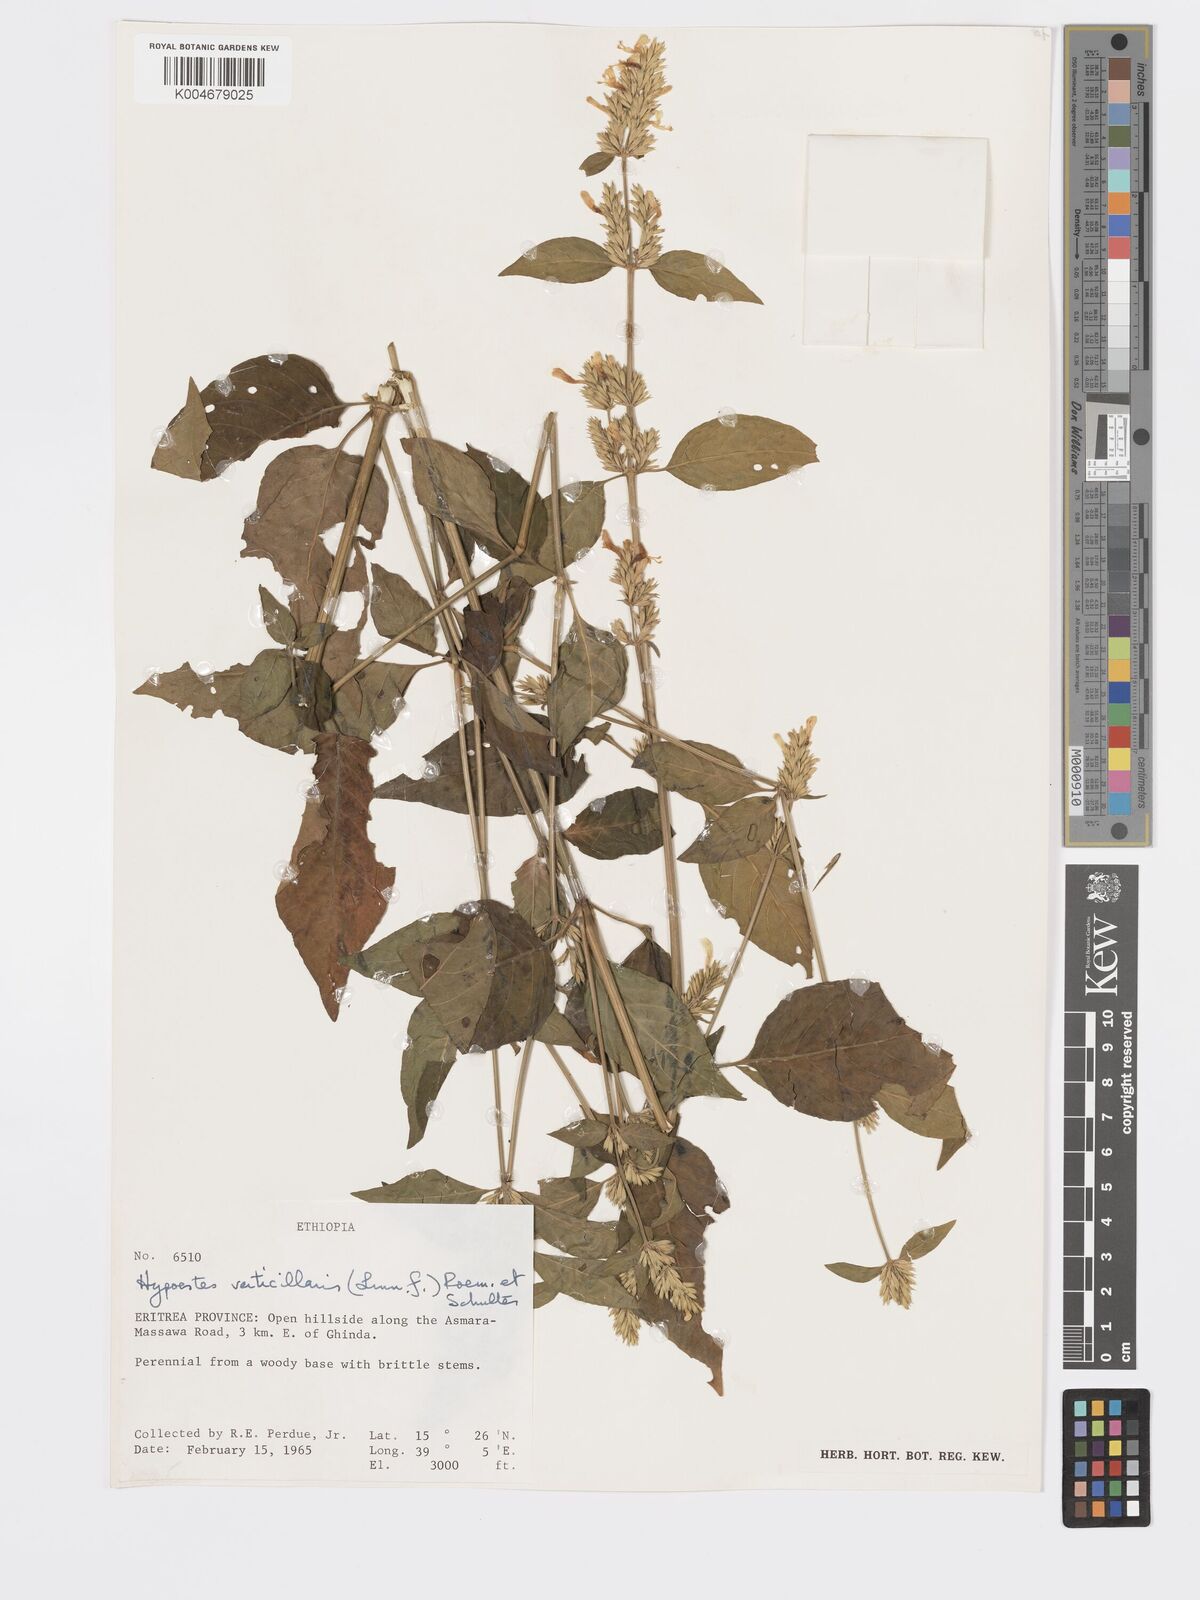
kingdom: Plantae
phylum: Tracheophyta
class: Magnoliopsida
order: Lamiales
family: Acanthaceae
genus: Hypoestes
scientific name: Hypoestes forskaolii
